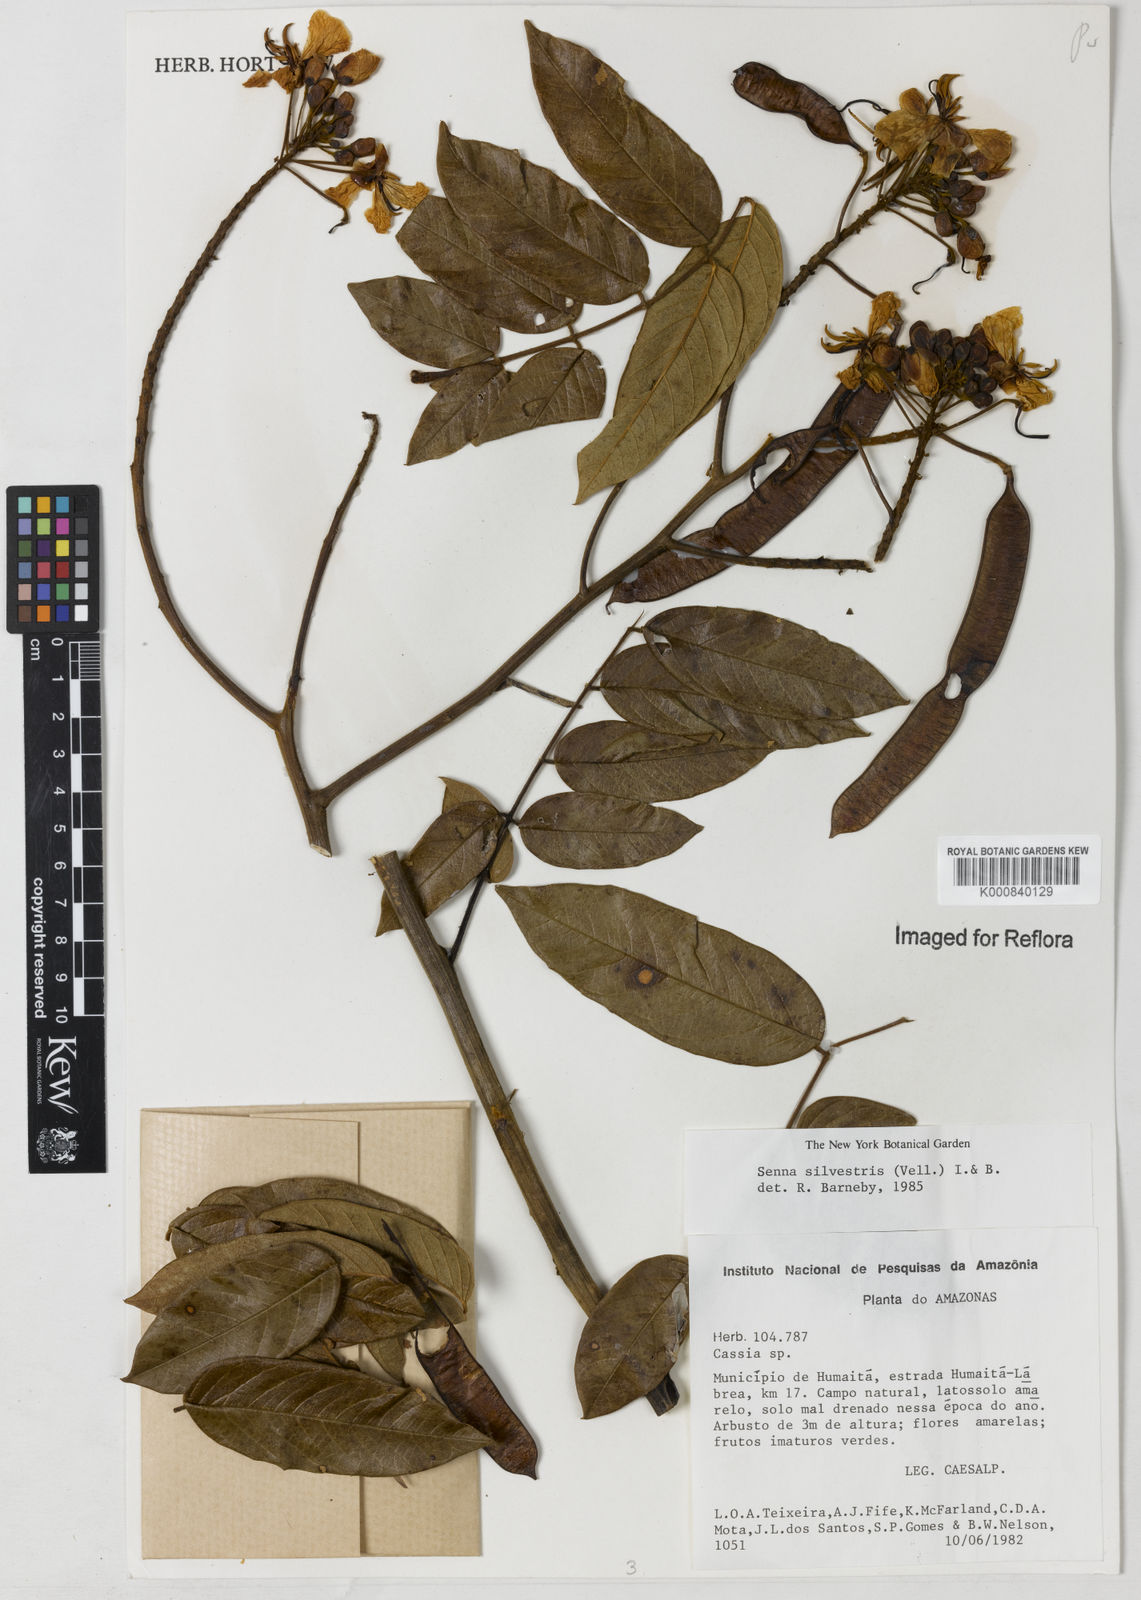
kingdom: Plantae
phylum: Tracheophyta
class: Magnoliopsida
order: Fabales
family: Fabaceae
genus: Senna
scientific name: Senna silvestris
